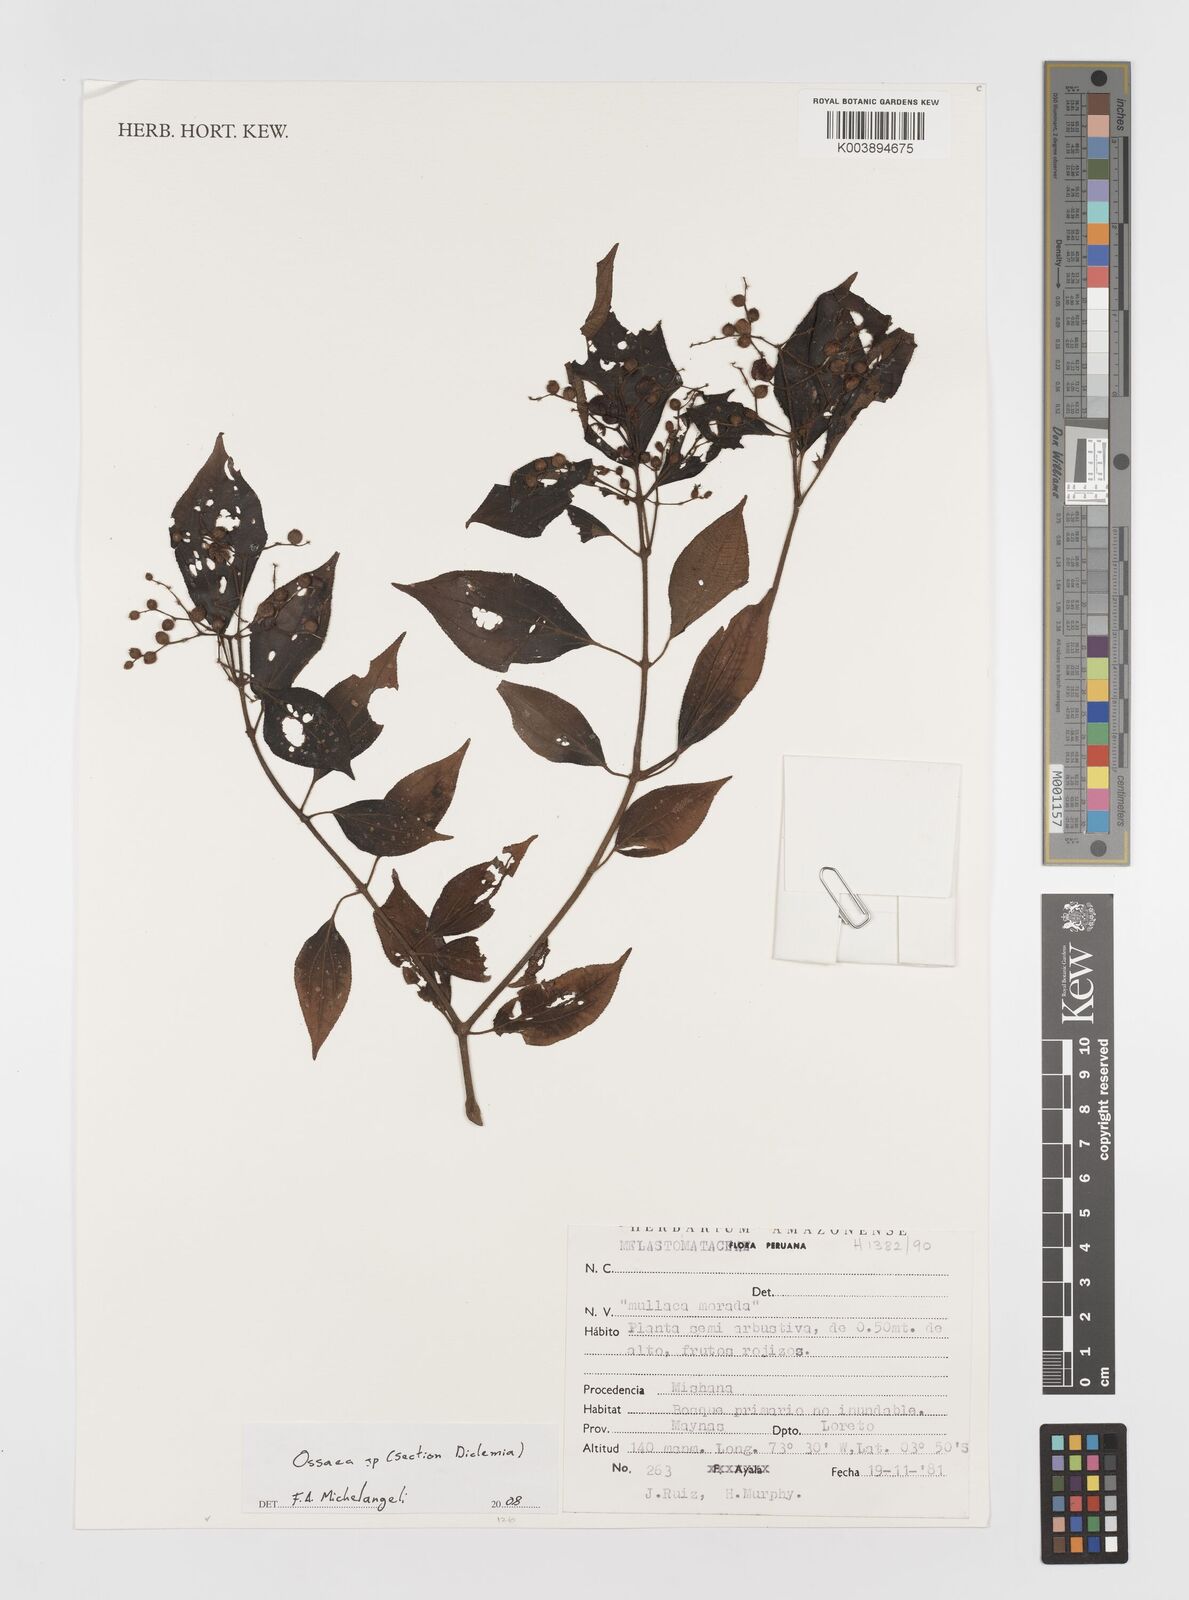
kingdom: Plantae
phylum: Tracheophyta
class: Magnoliopsida
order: Myrtales
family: Melastomataceae
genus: Ossaea
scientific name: Ossaea
